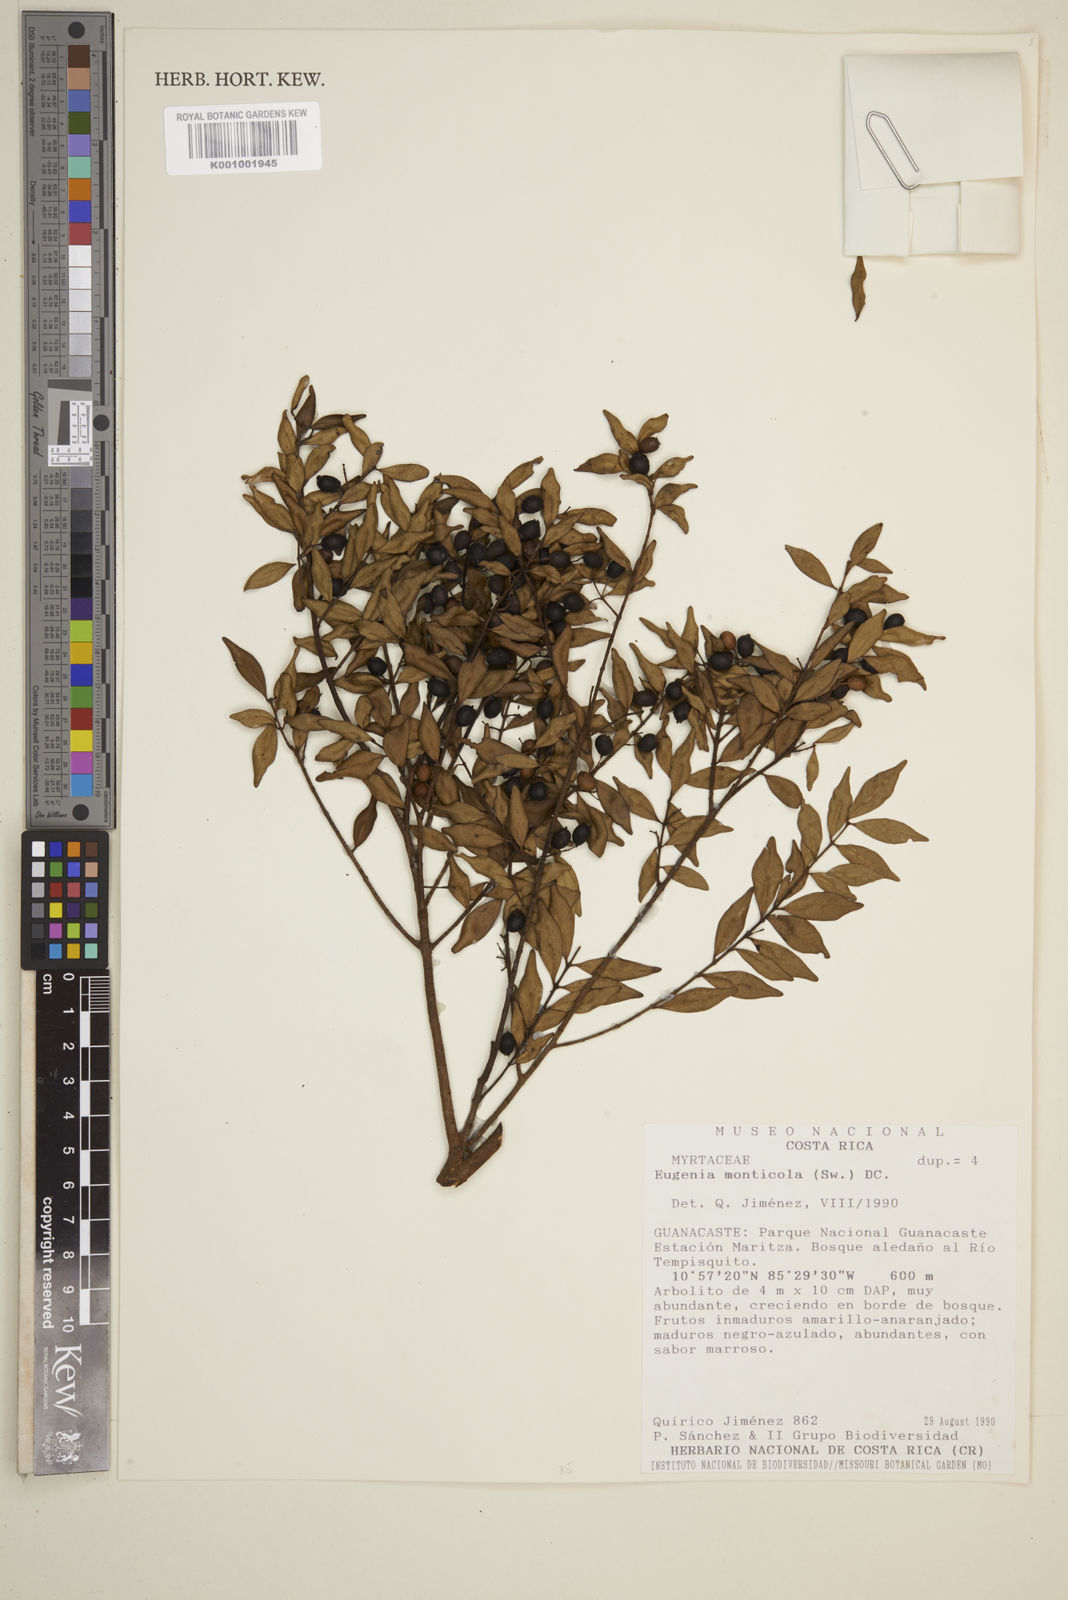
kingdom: Plantae
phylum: Tracheophyta
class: Magnoliopsida
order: Myrtales
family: Myrtaceae
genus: Eugenia
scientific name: Eugenia monticola
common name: Birds berry
